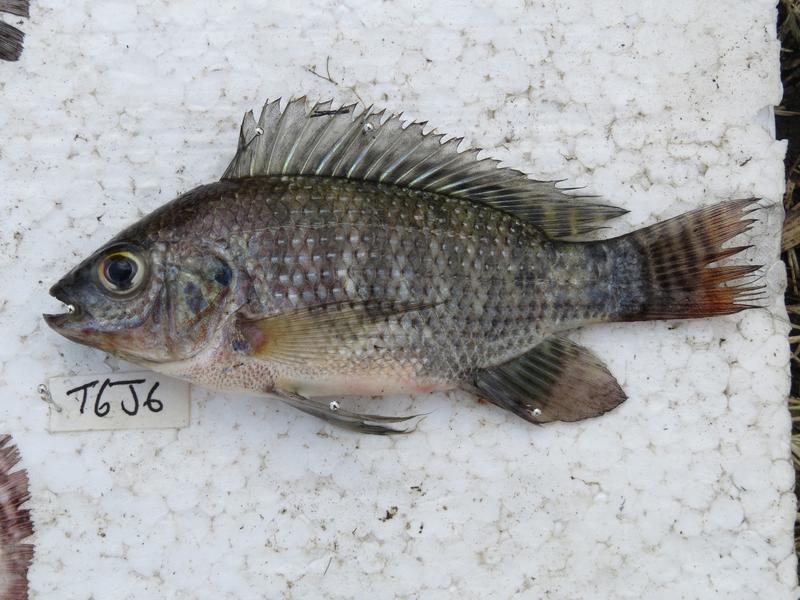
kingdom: Animalia
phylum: Chordata
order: Perciformes
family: Cichlidae
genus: Oreochromis
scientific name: Oreochromis niloticus
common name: Nile tilapia
